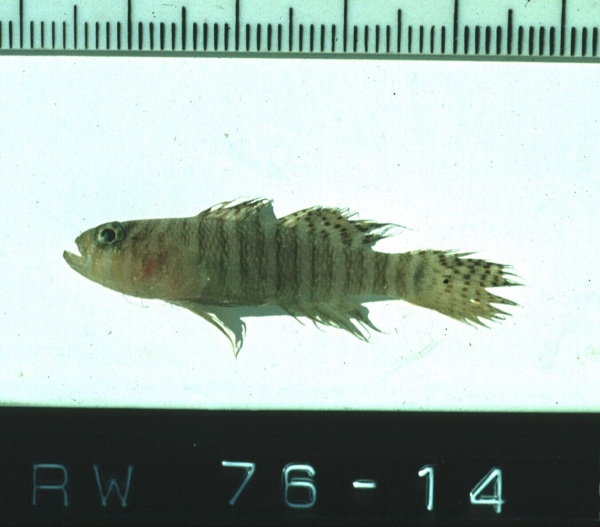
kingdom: Animalia
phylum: Chordata
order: Perciformes
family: Gobiidae
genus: Priolepis
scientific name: Priolepis cincta
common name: Banded reef-goby
